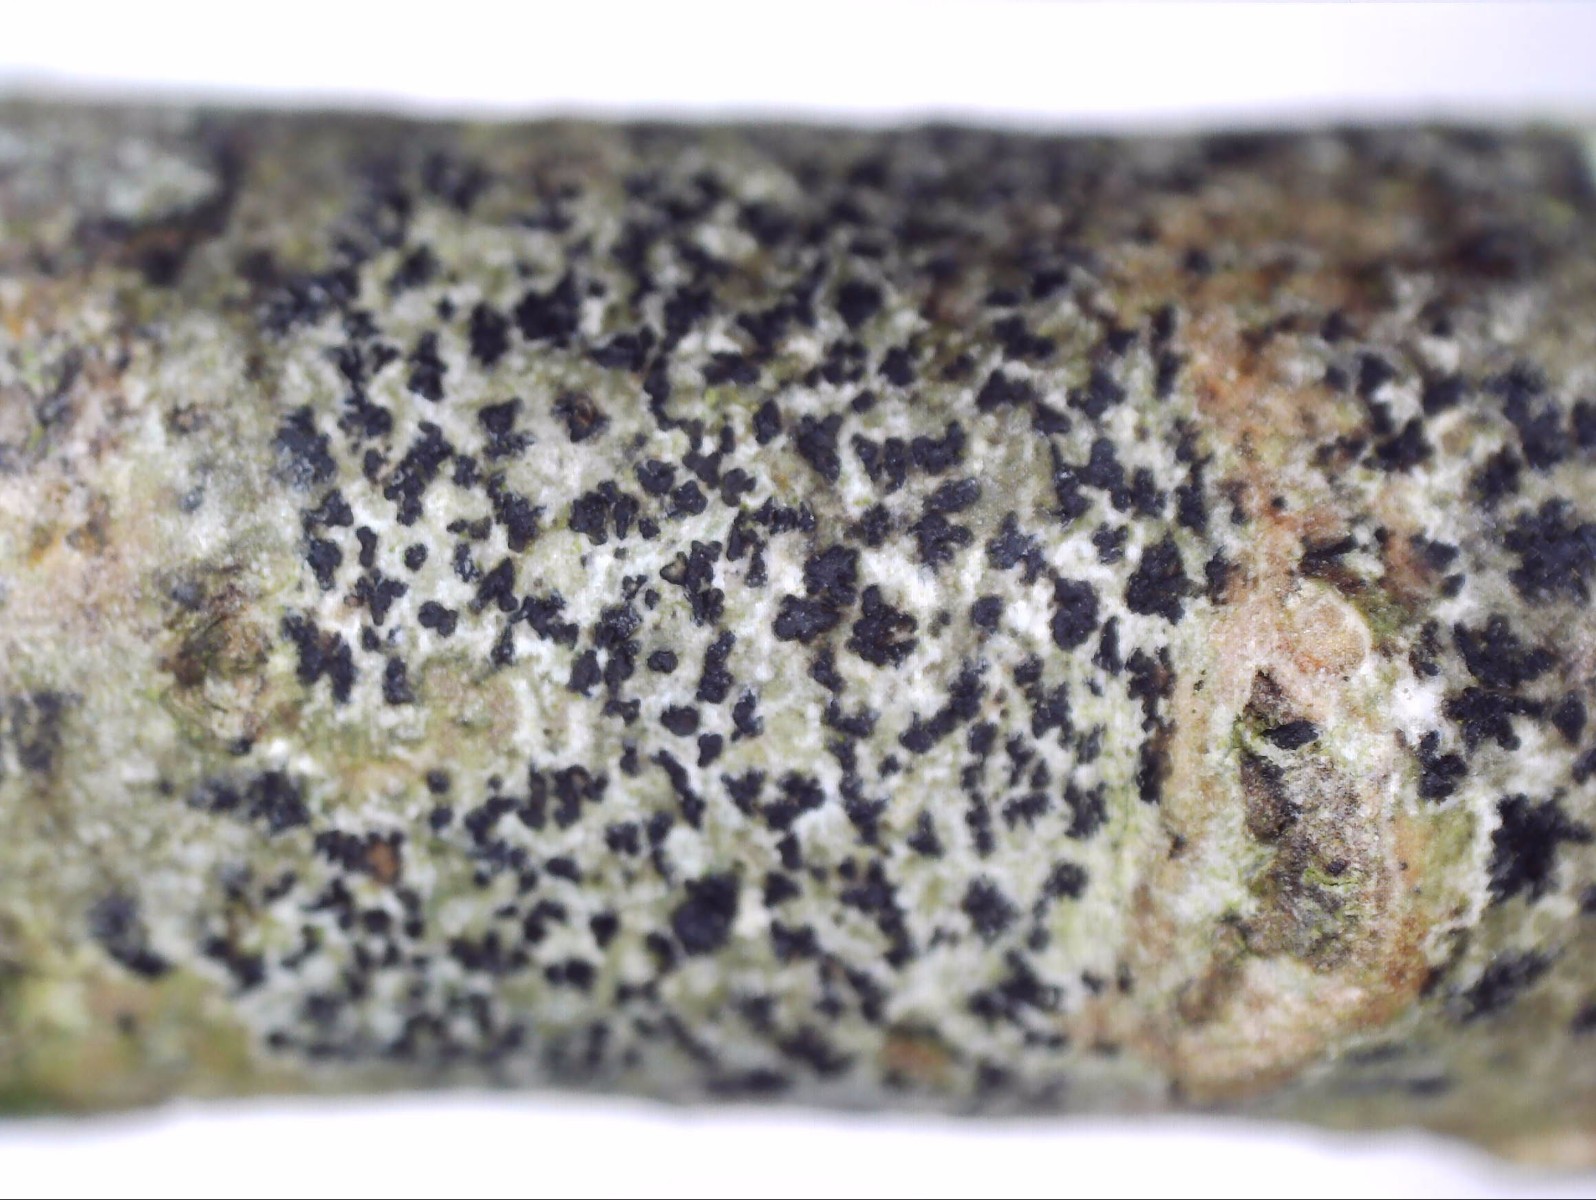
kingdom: Fungi
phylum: Ascomycota
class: Arthoniomycetes
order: Arthoniales
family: Arthoniaceae
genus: Arthonia
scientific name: Arthonia radiata
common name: stjerne-pletlav
